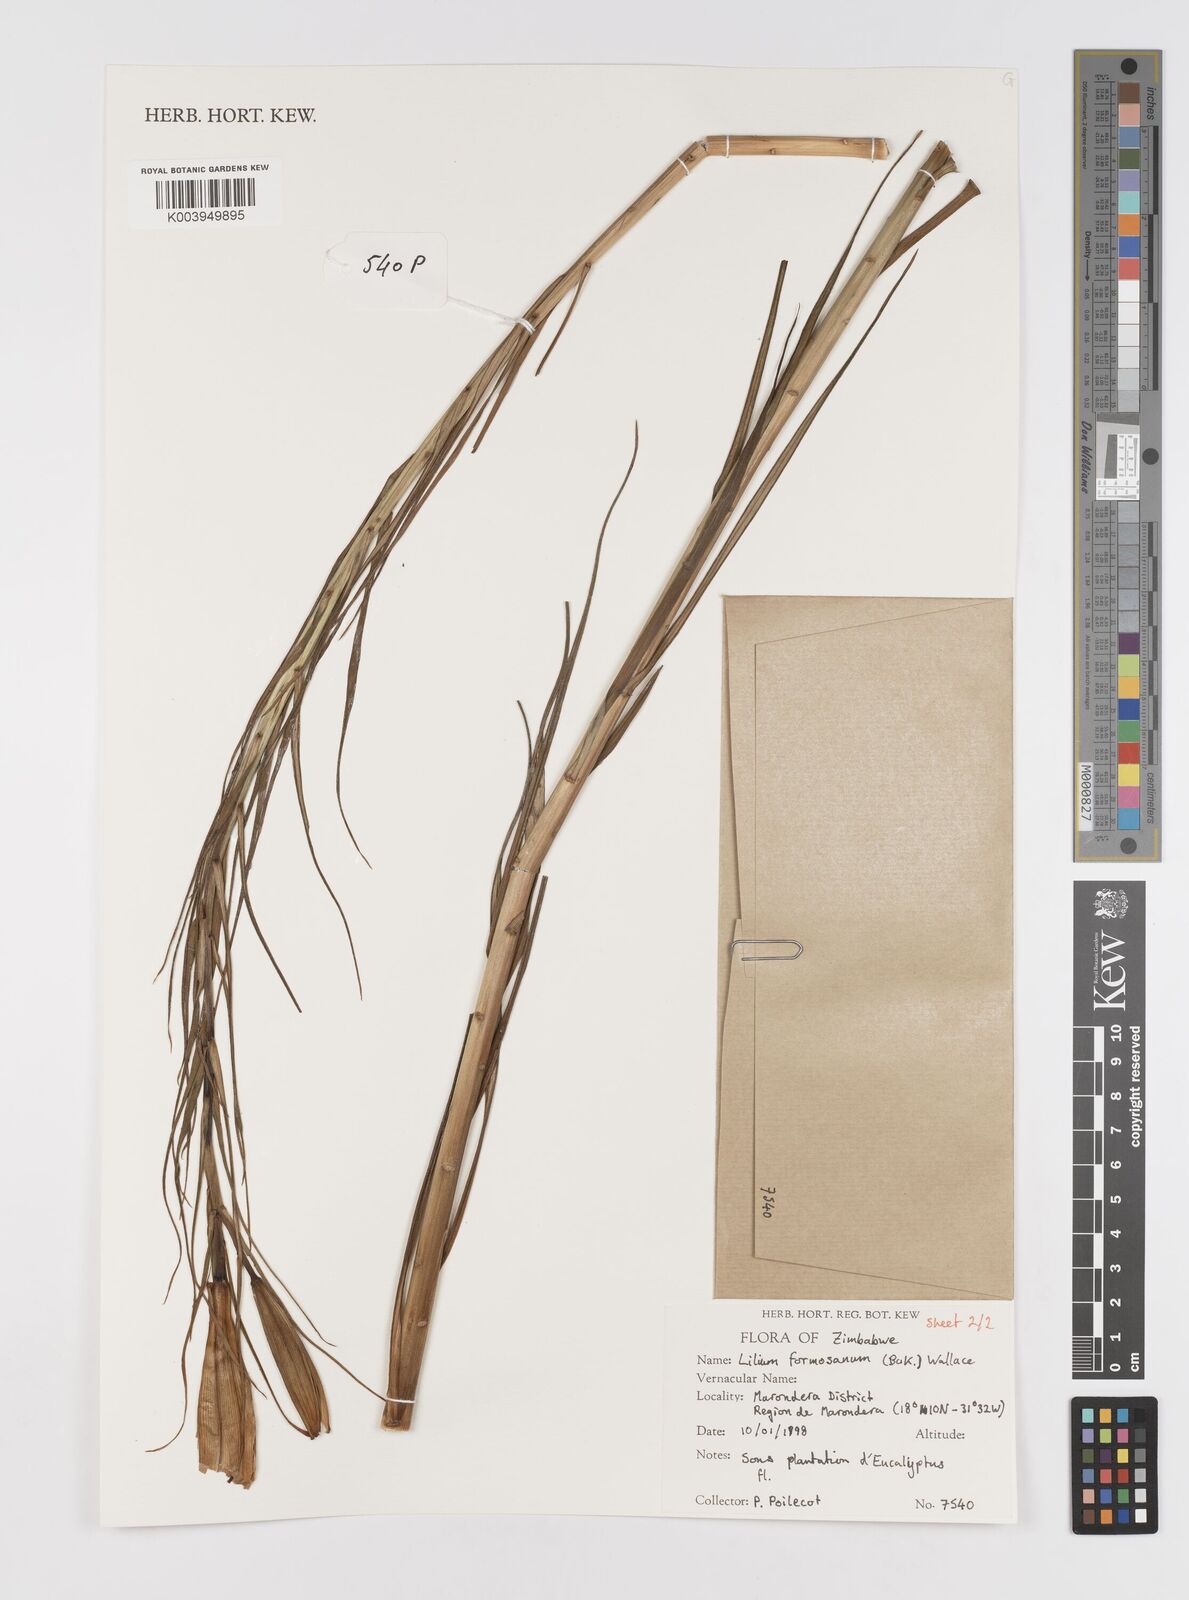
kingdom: Plantae
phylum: Tracheophyta
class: Liliopsida
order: Liliales
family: Liliaceae
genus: Lilium
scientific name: Lilium formosanum
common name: Formosa lily
